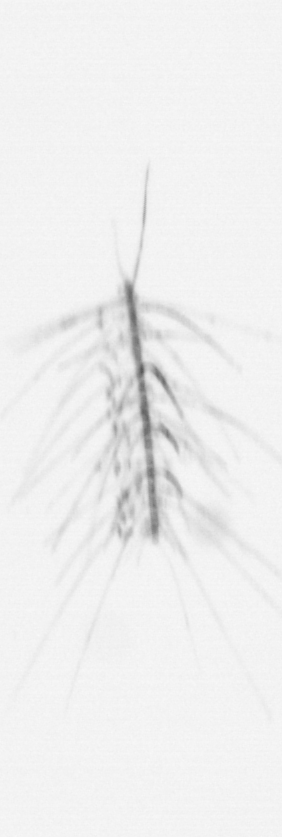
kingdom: Chromista
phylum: Ochrophyta
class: Bacillariophyceae
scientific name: Bacillariophyceae
